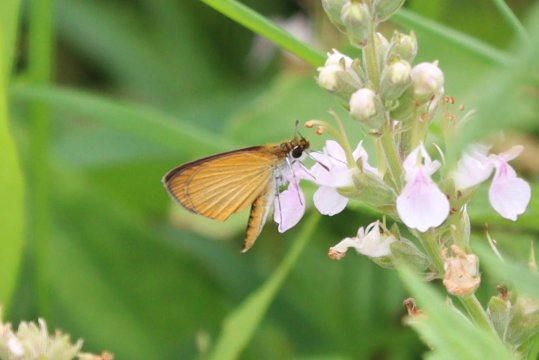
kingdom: Animalia
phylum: Arthropoda
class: Insecta
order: Lepidoptera
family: Hesperiidae
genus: Ancyloxypha
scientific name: Ancyloxypha numitor
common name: Least Skipper
